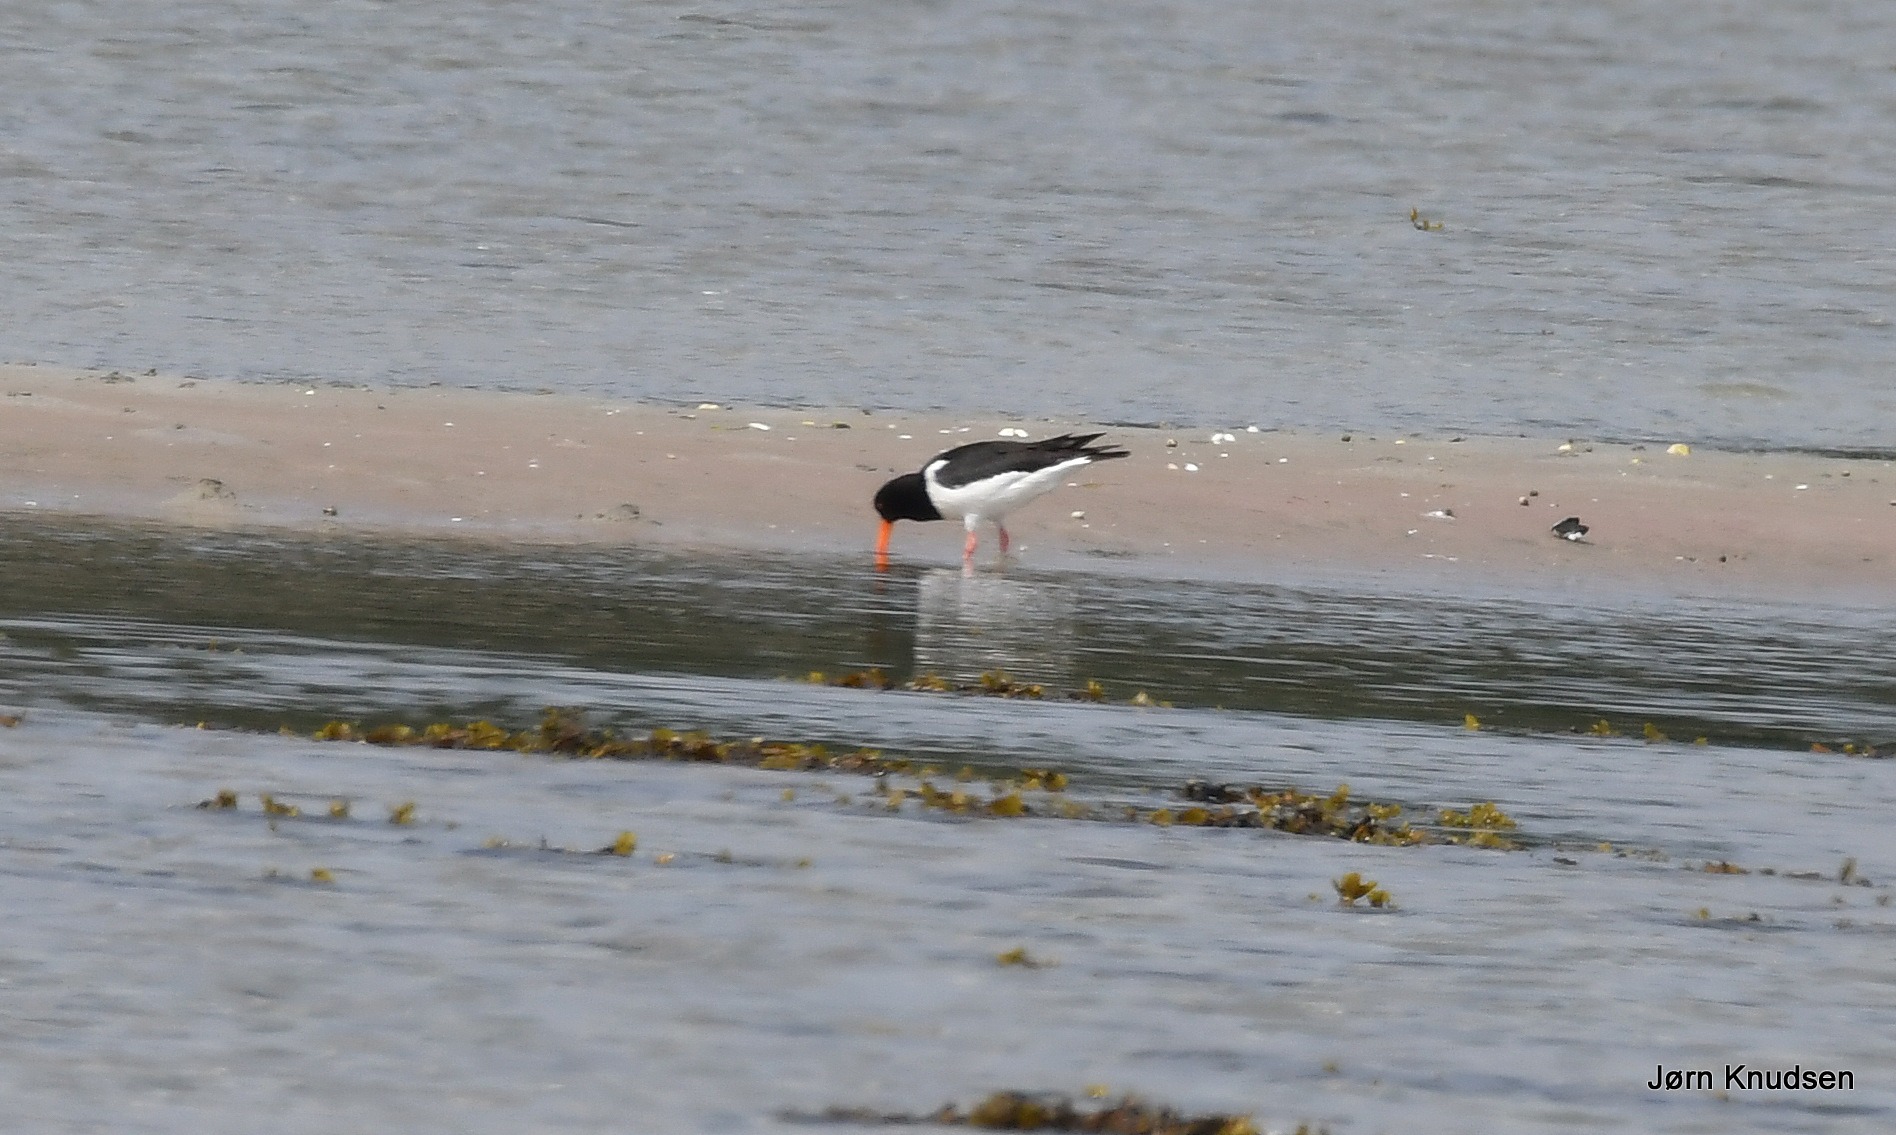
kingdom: Animalia
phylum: Chordata
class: Aves
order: Charadriiformes
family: Haematopodidae
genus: Haematopus
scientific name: Haematopus ostralegus
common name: Strandskade
